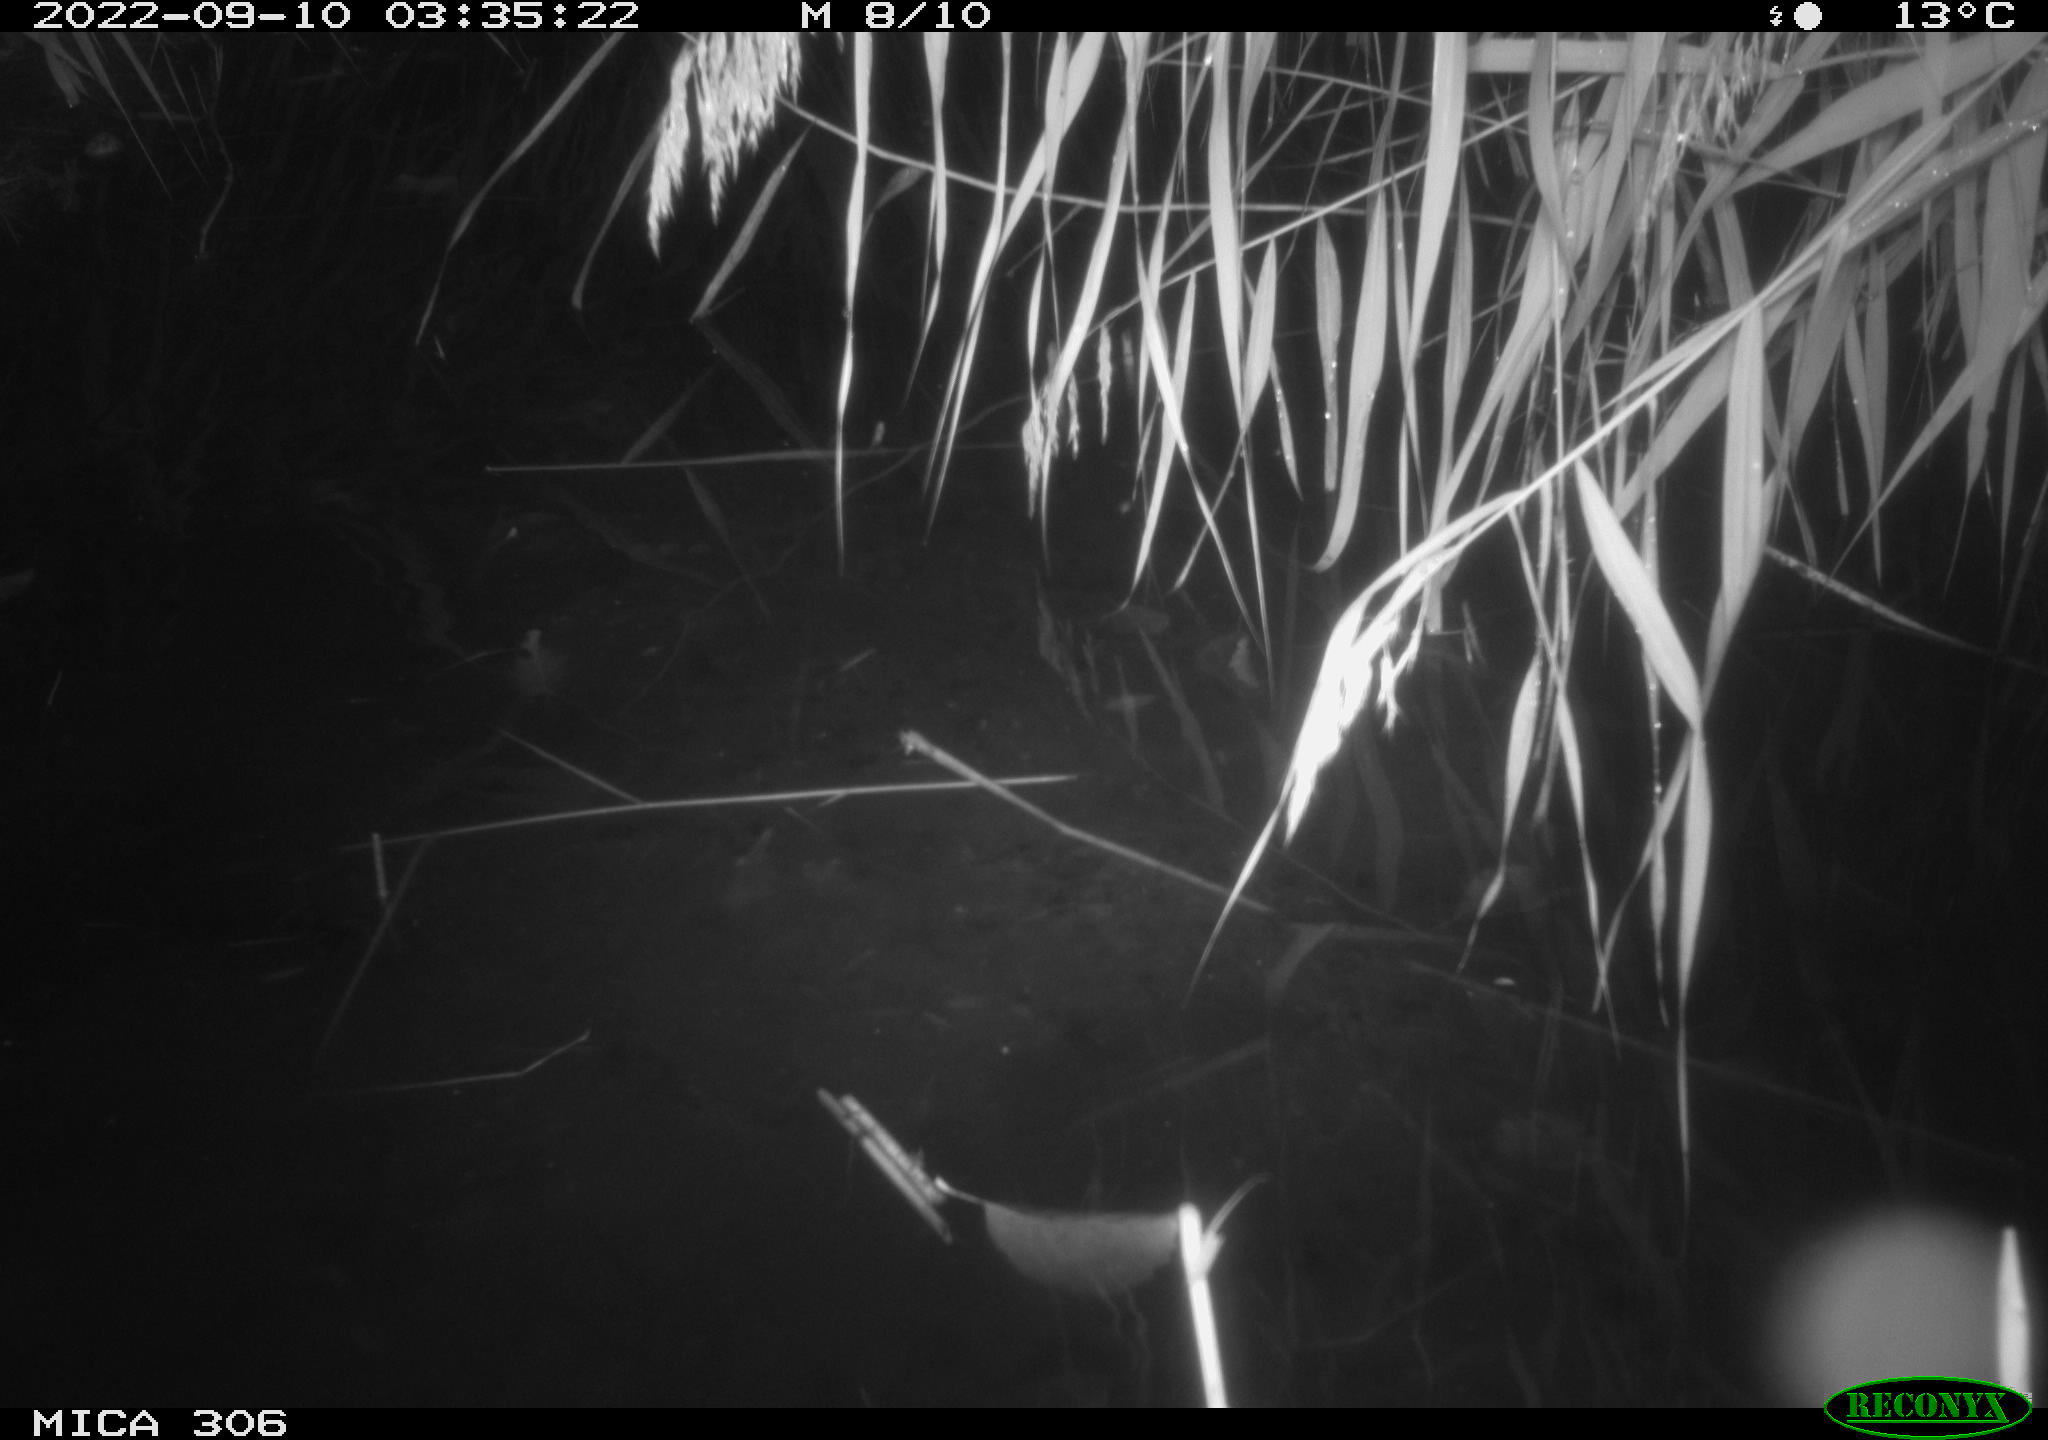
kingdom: Animalia
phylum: Chordata
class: Mammalia
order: Rodentia
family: Muridae
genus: Rattus
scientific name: Rattus norvegicus
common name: Brown rat
